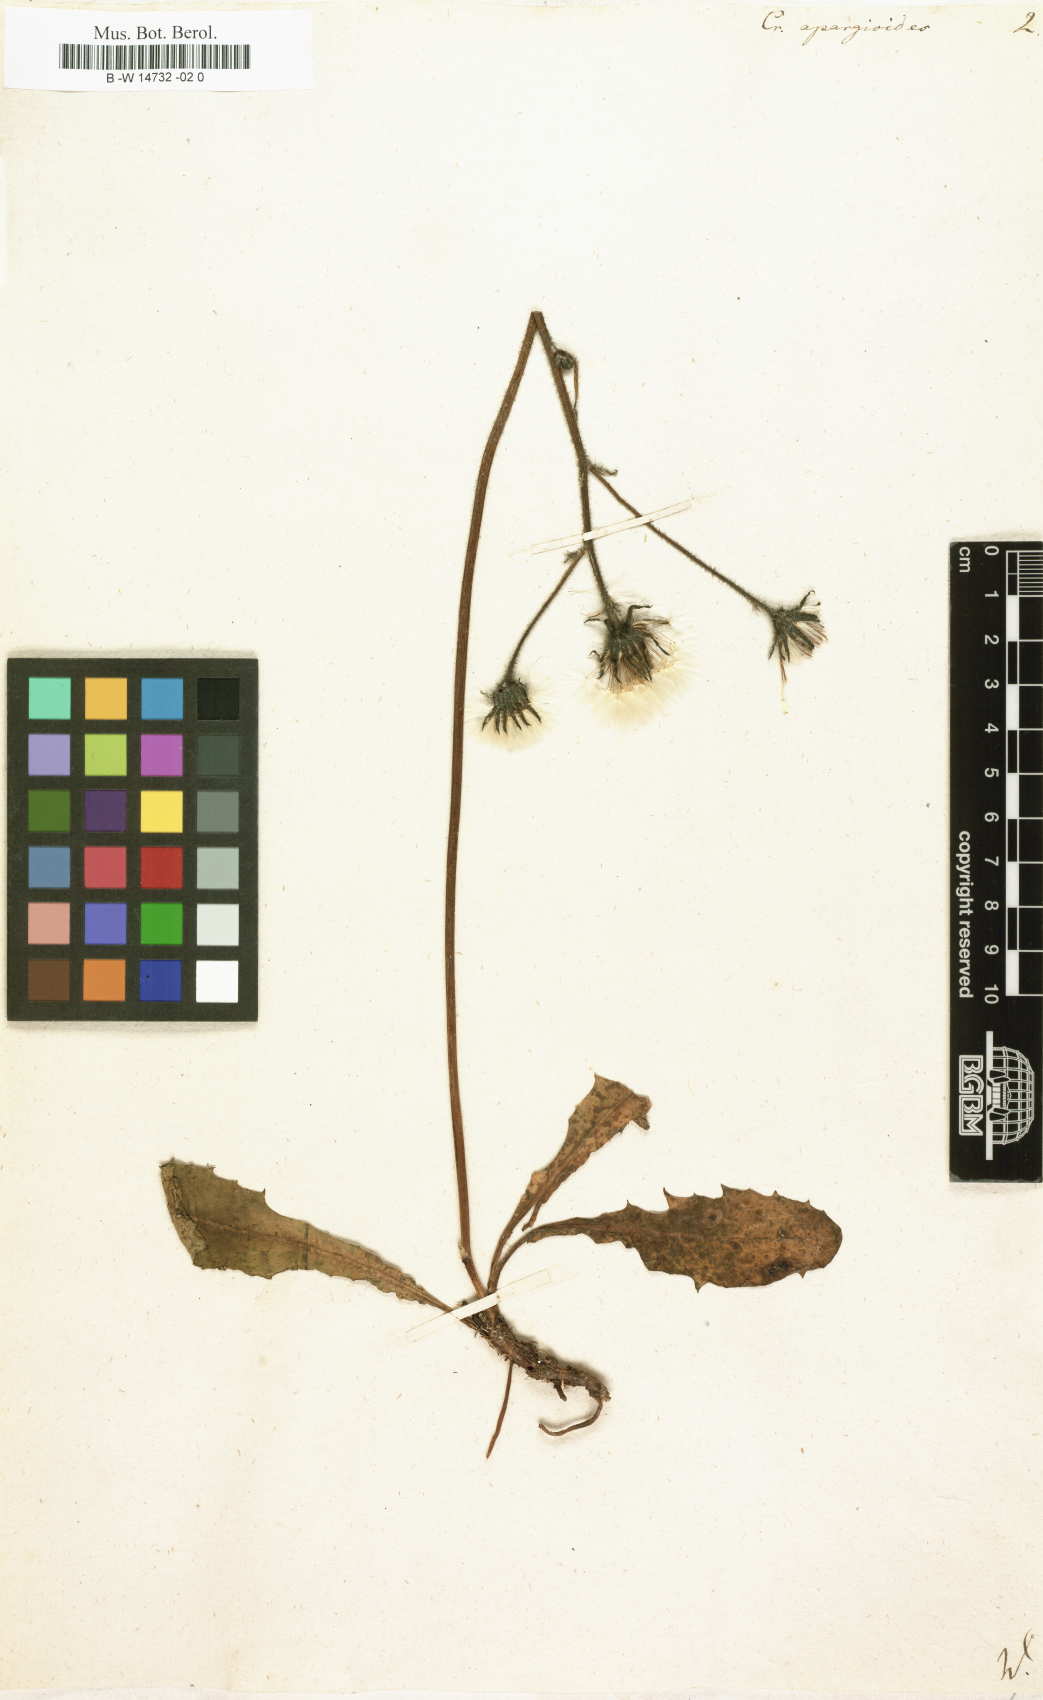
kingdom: Plantae
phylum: Tracheophyta
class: Magnoliopsida
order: Asterales
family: Asteraceae
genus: Willemetia
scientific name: Willemetia stipitata
